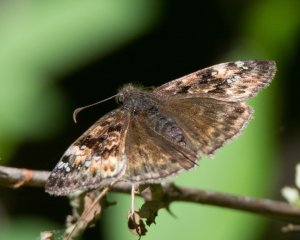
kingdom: Animalia
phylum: Arthropoda
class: Insecta
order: Lepidoptera
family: Hesperiidae
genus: Gesta
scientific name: Gesta
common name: Horace's Duskywing
